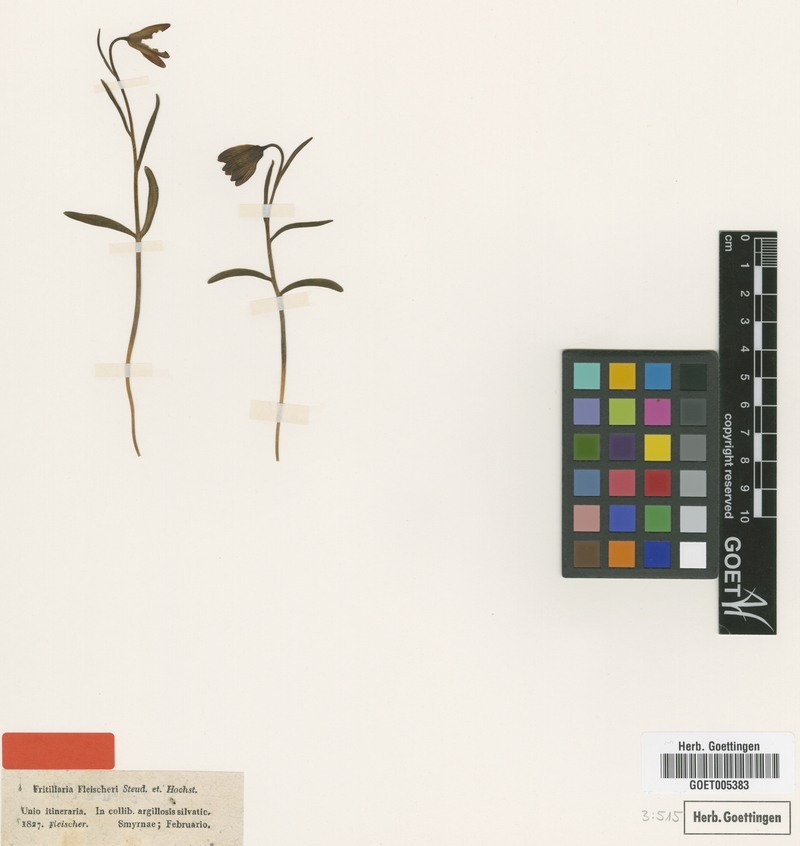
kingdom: Plantae
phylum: Tracheophyta
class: Liliopsida
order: Liliales
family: Liliaceae
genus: Fritillaria
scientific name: Fritillaria fleischeriana
